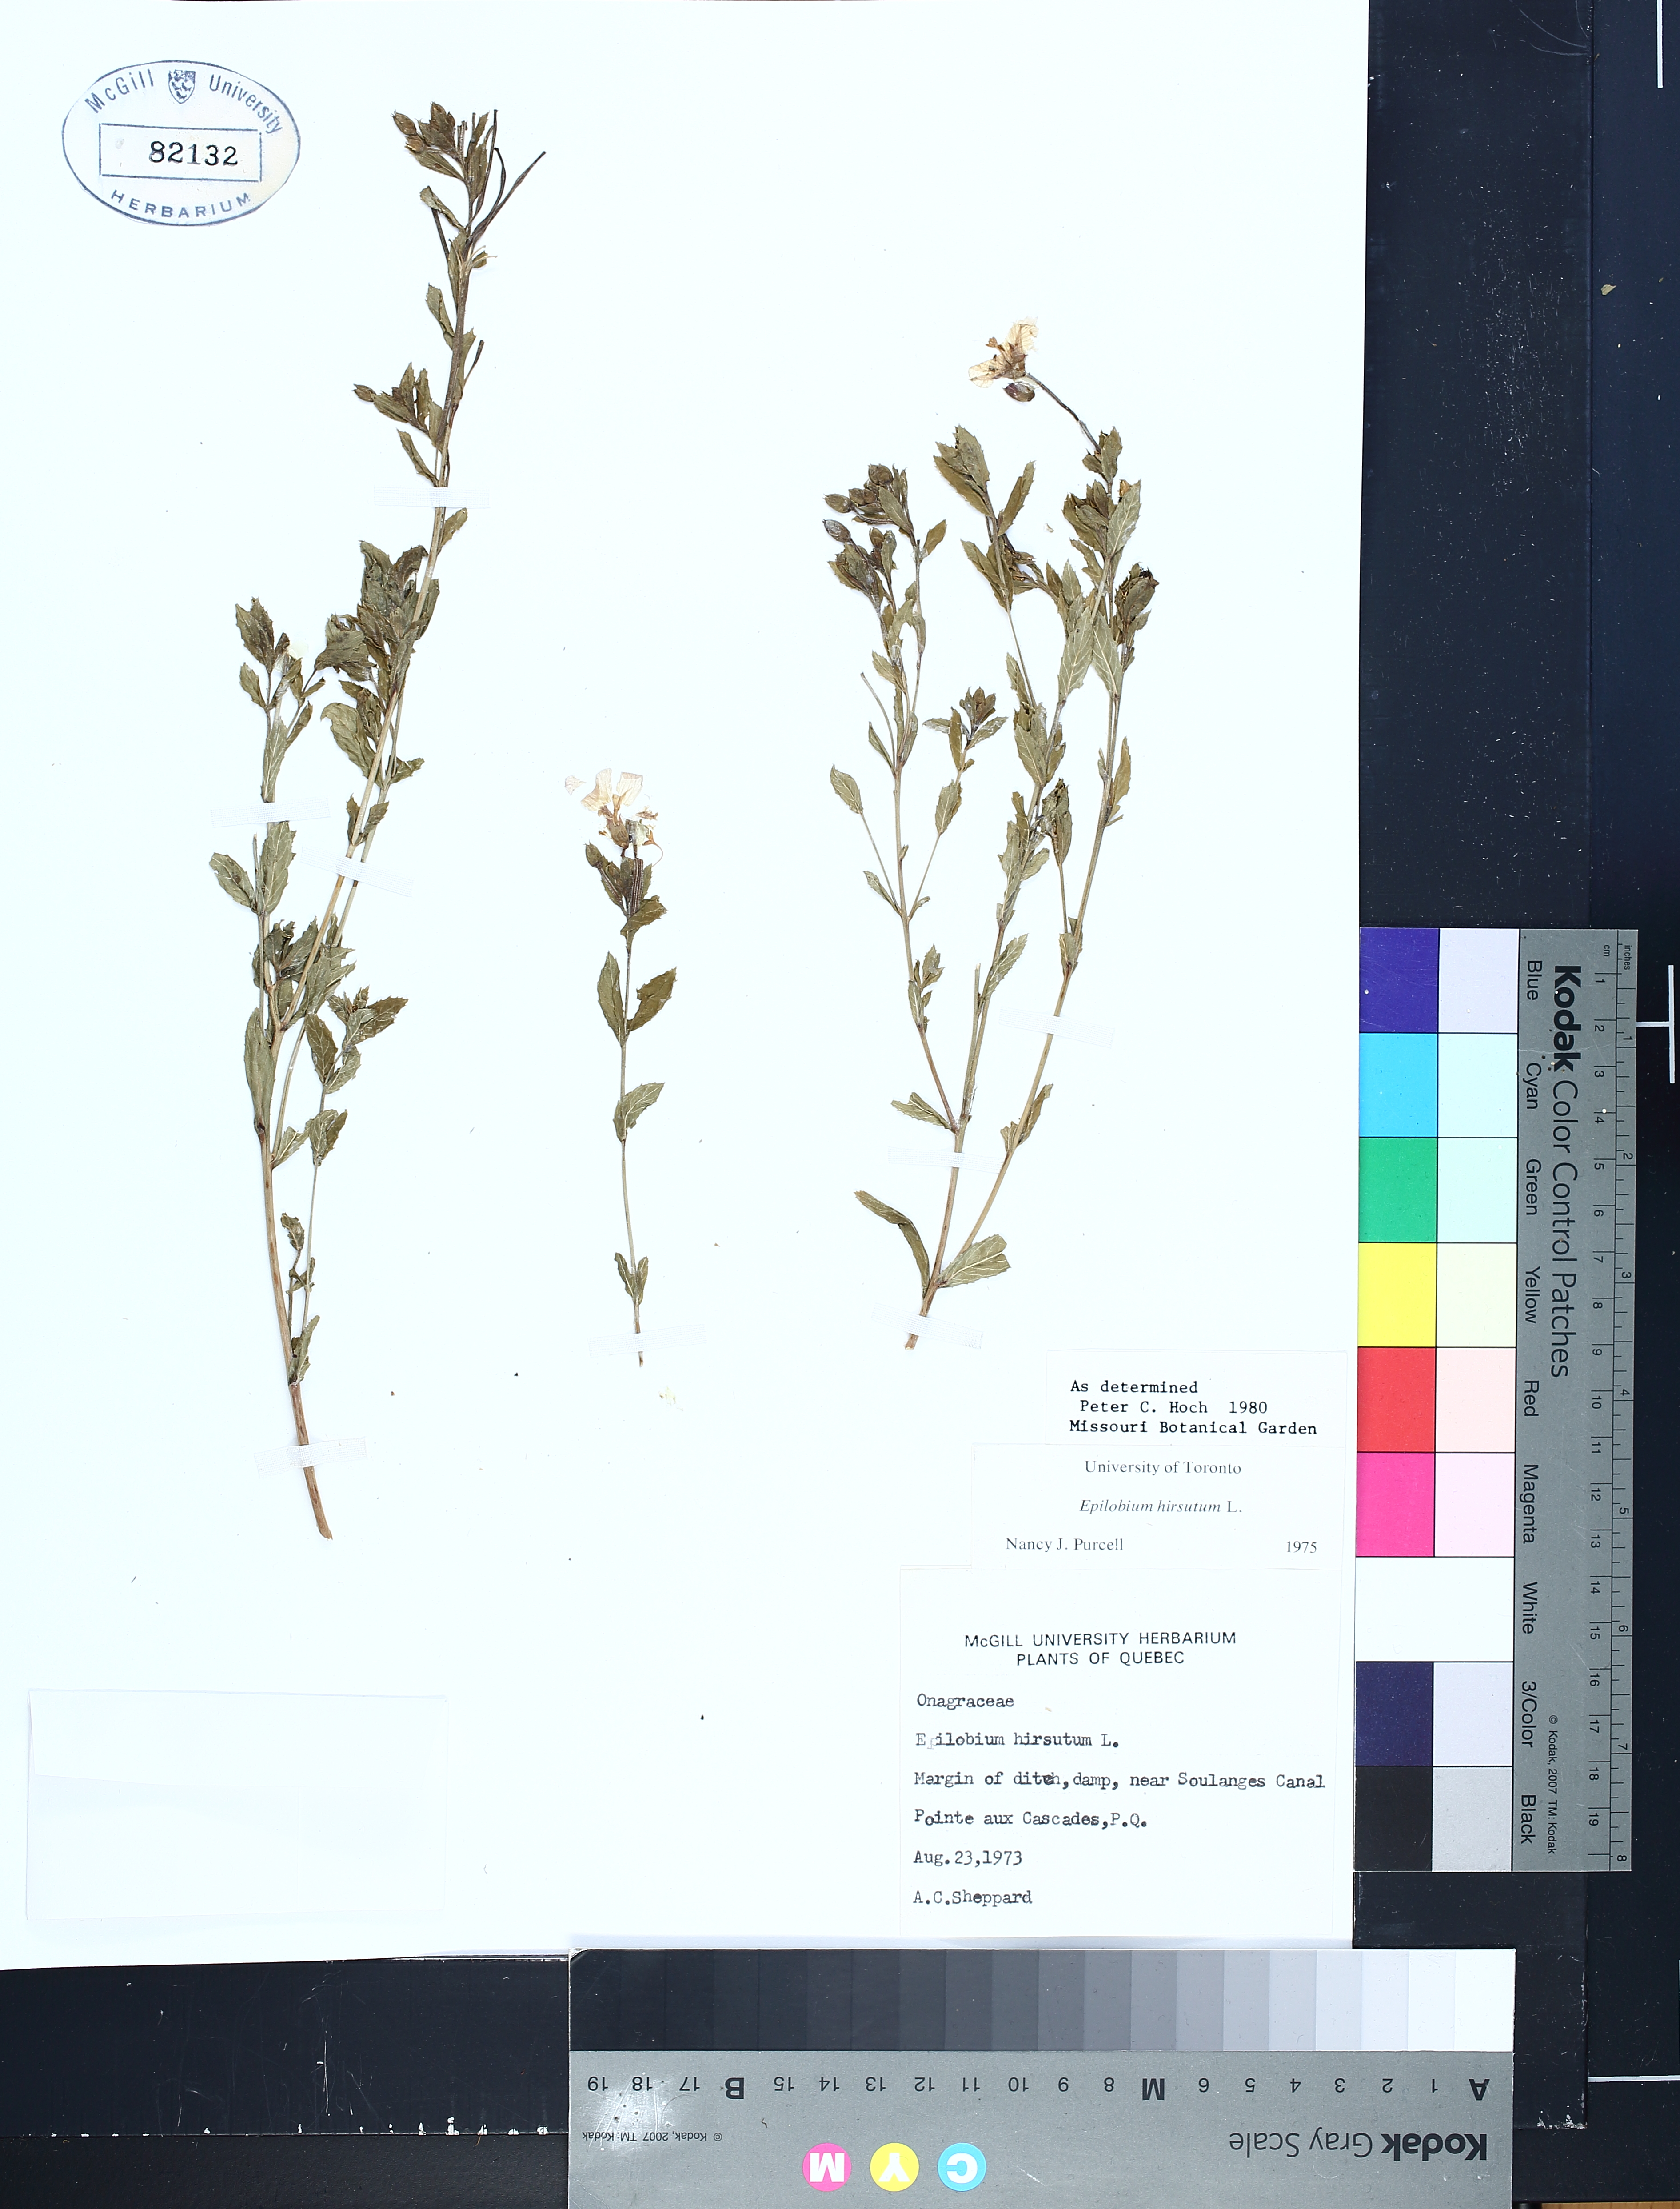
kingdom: Plantae
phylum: Tracheophyta
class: Magnoliopsida
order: Myrtales
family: Onagraceae
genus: Epilobium
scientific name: Epilobium hirsutum
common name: Great willowherb
